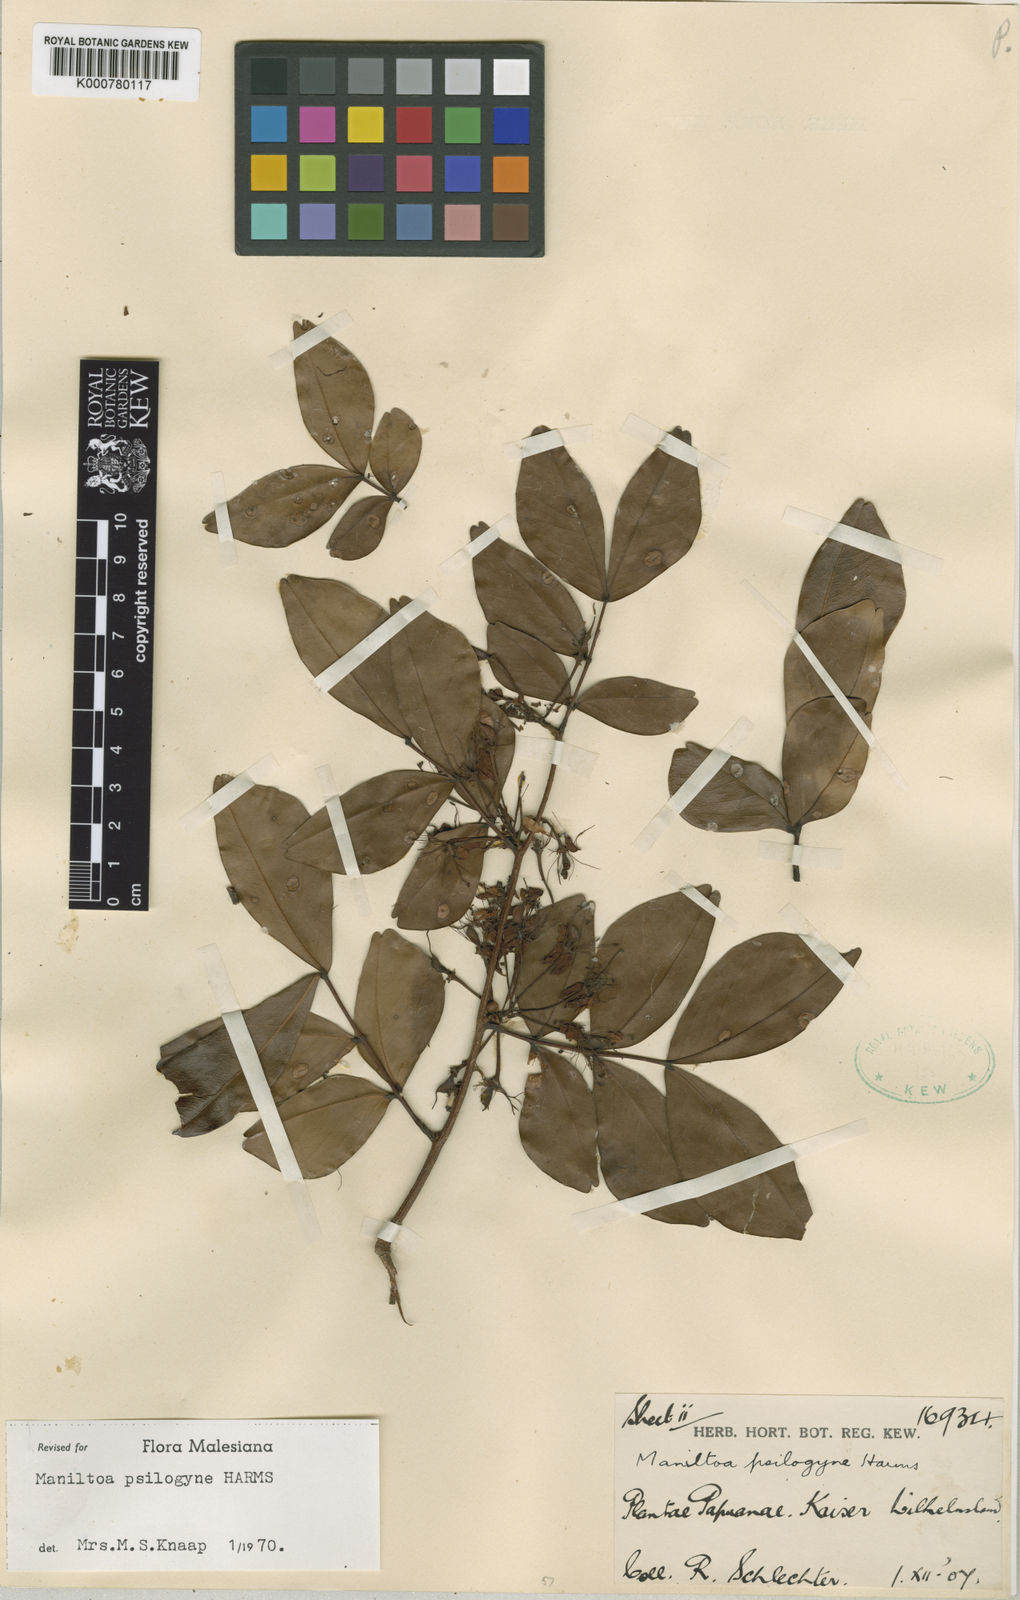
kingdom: Plantae
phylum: Tracheophyta
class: Magnoliopsida
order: Fabales
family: Fabaceae
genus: Cynometra
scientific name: Cynometra psilogyne
